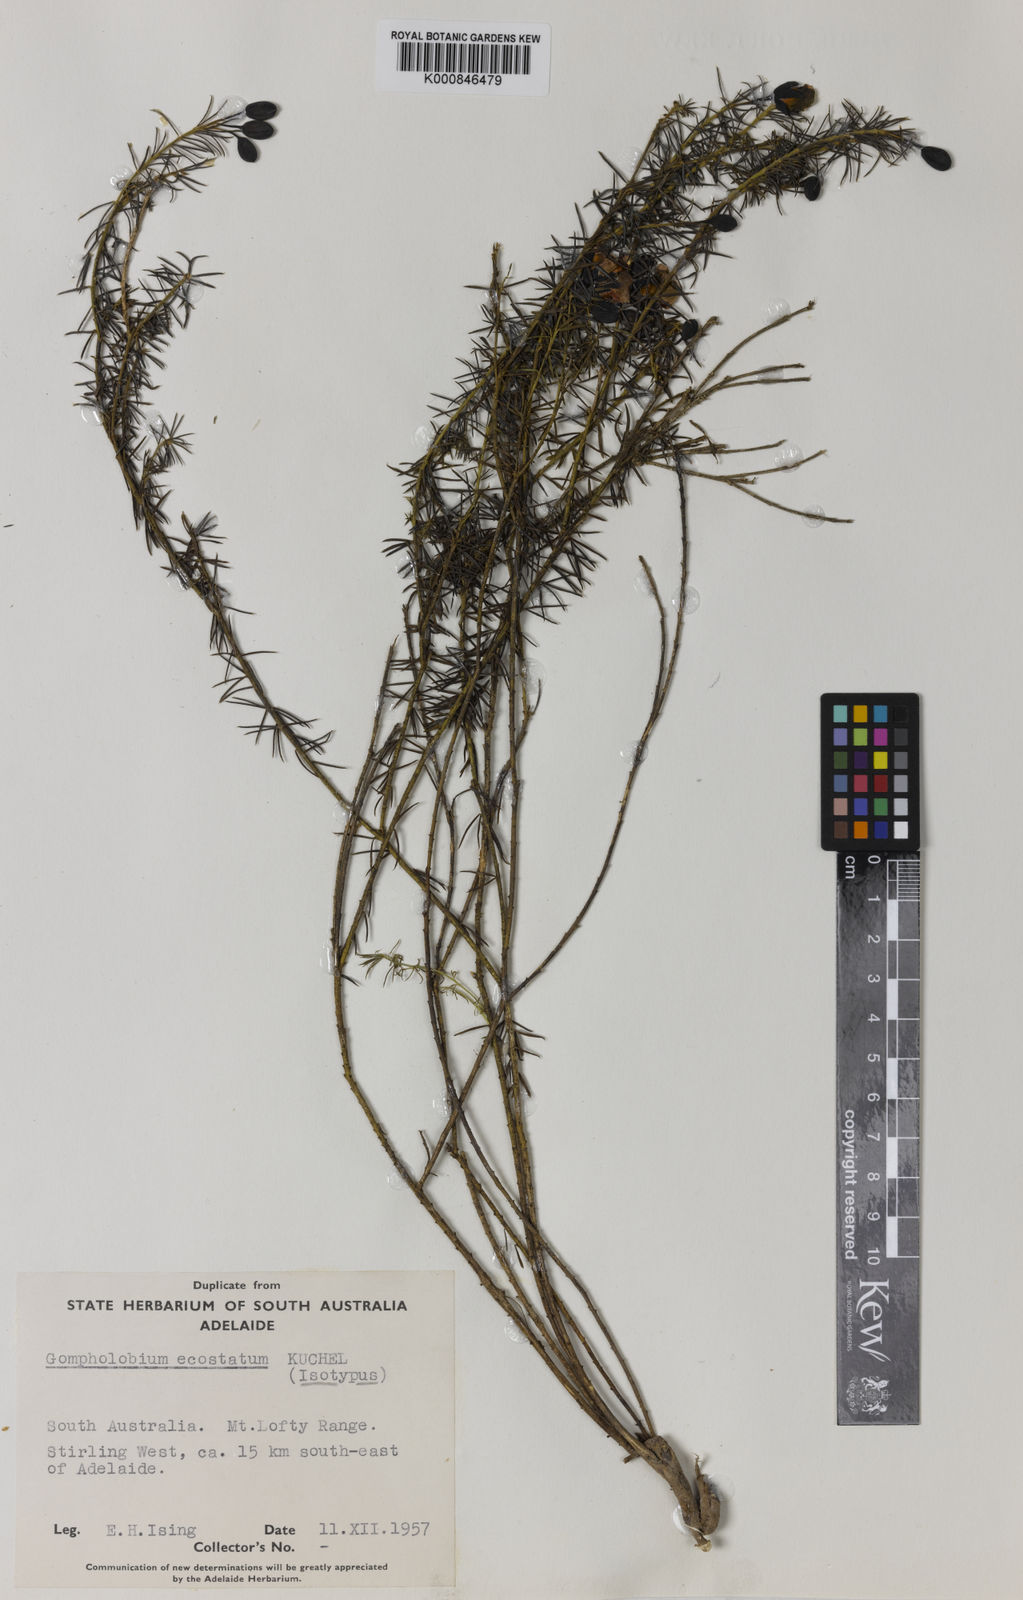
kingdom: Plantae
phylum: Tracheophyta
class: Magnoliopsida
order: Fabales
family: Fabaceae
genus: Gompholobium
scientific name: Gompholobium ecostatum
